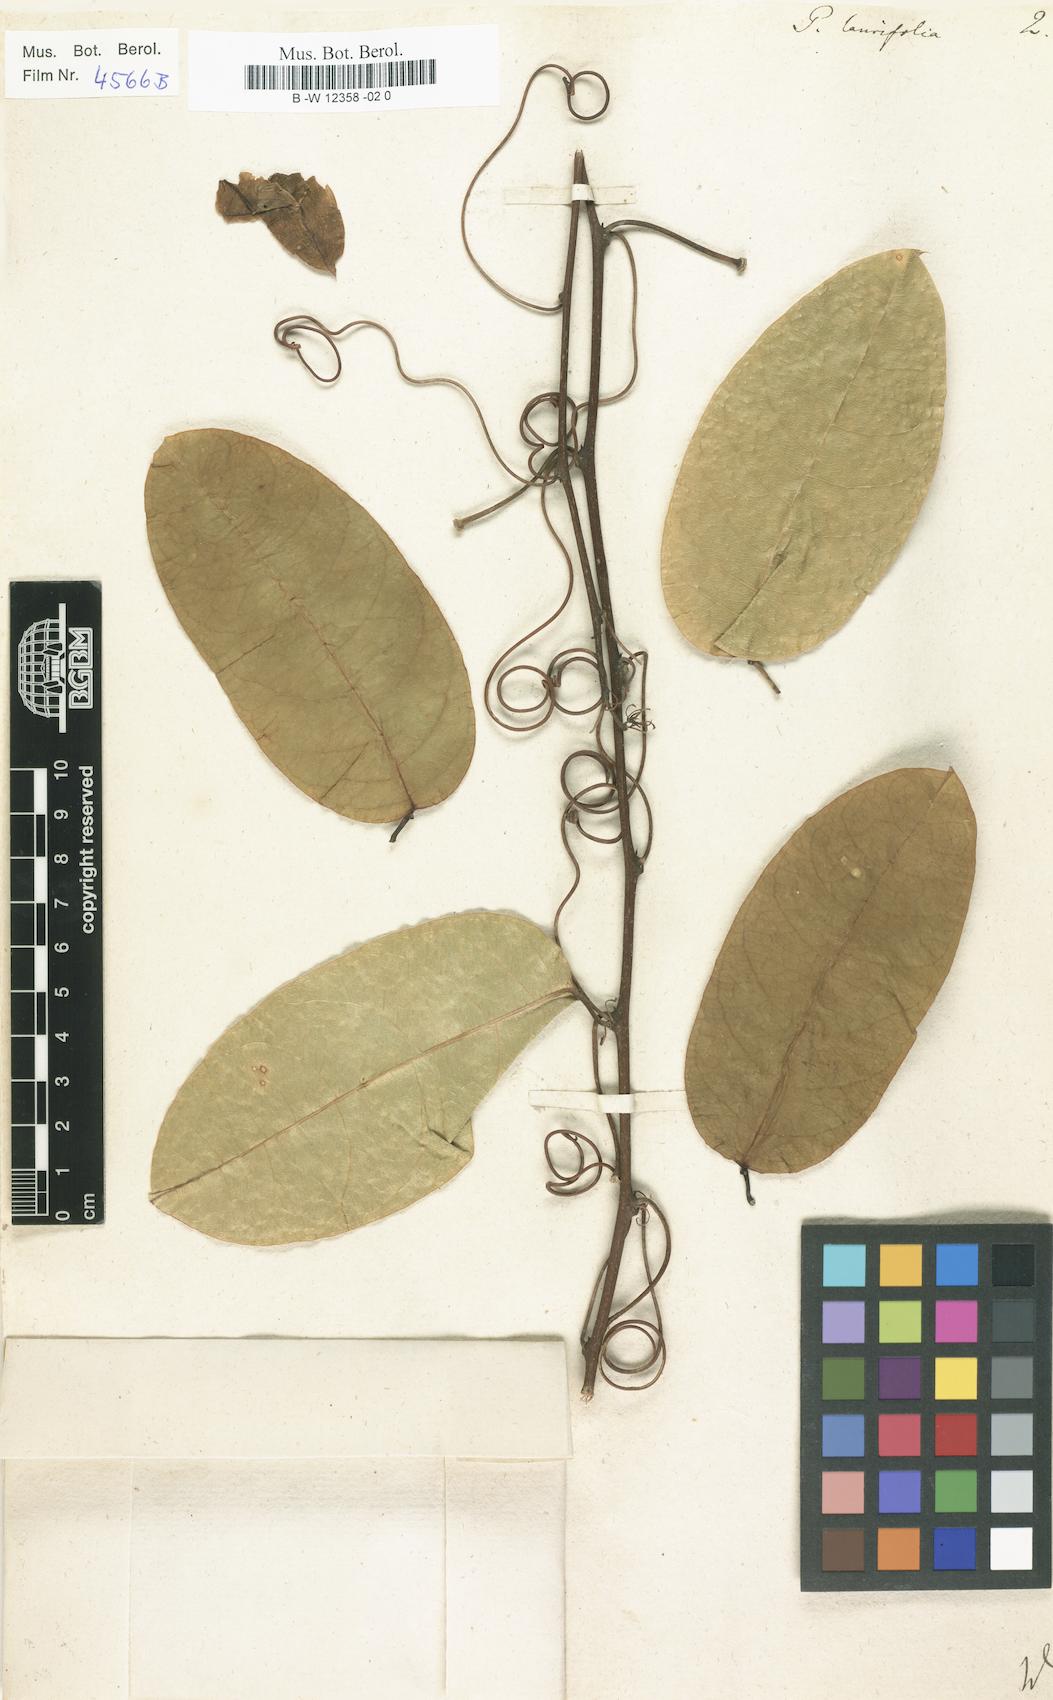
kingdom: Plantae
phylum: Tracheophyta
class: Magnoliopsida
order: Malpighiales
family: Passifloraceae
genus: Passiflora
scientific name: Passiflora laurifolia
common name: Bell apple
